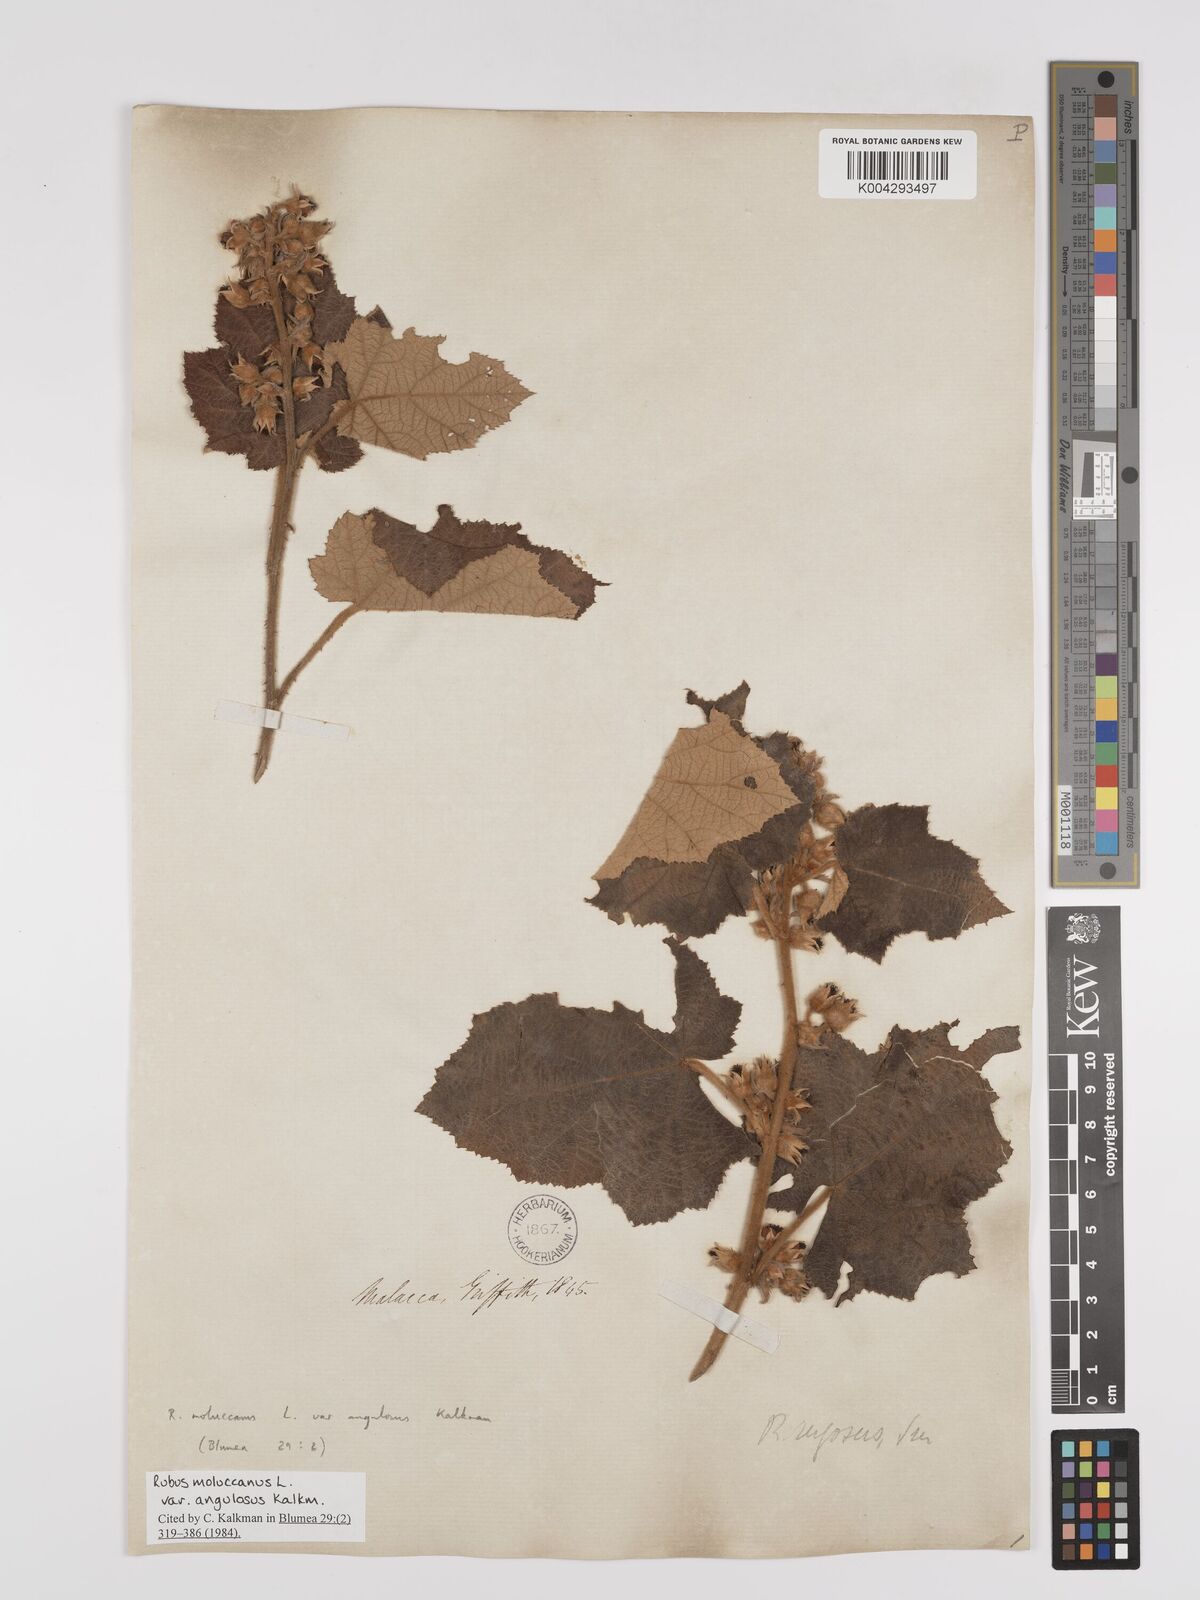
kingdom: Plantae
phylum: Tracheophyta
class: Magnoliopsida
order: Rosales
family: Rosaceae
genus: Rubus
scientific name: Rubus moluccanus
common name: Wild raspberry
